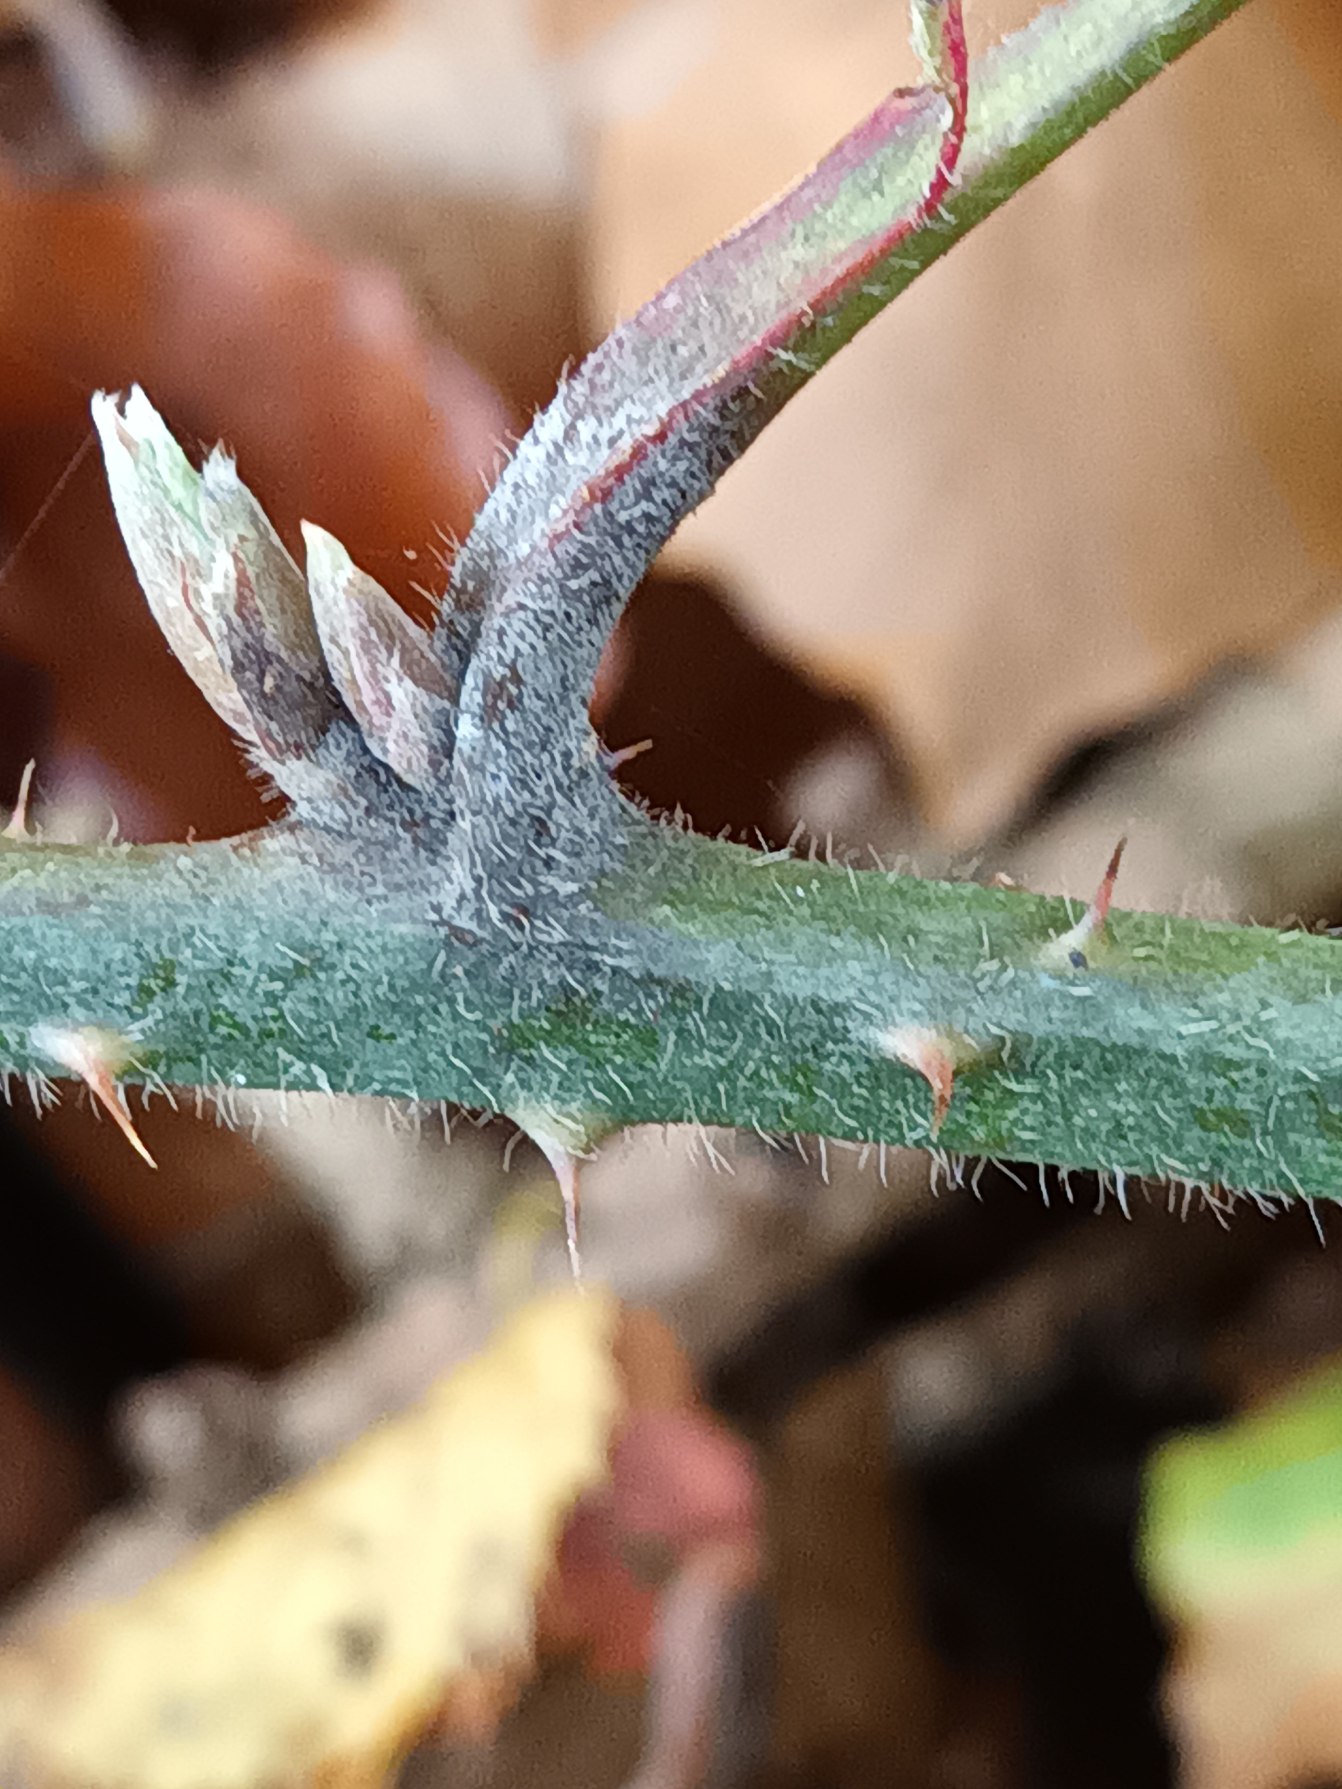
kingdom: Plantae
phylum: Tracheophyta
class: Magnoliopsida
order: Rosales
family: Rosaceae
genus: Rubus
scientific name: Rubus radula
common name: Rasperu brombær
